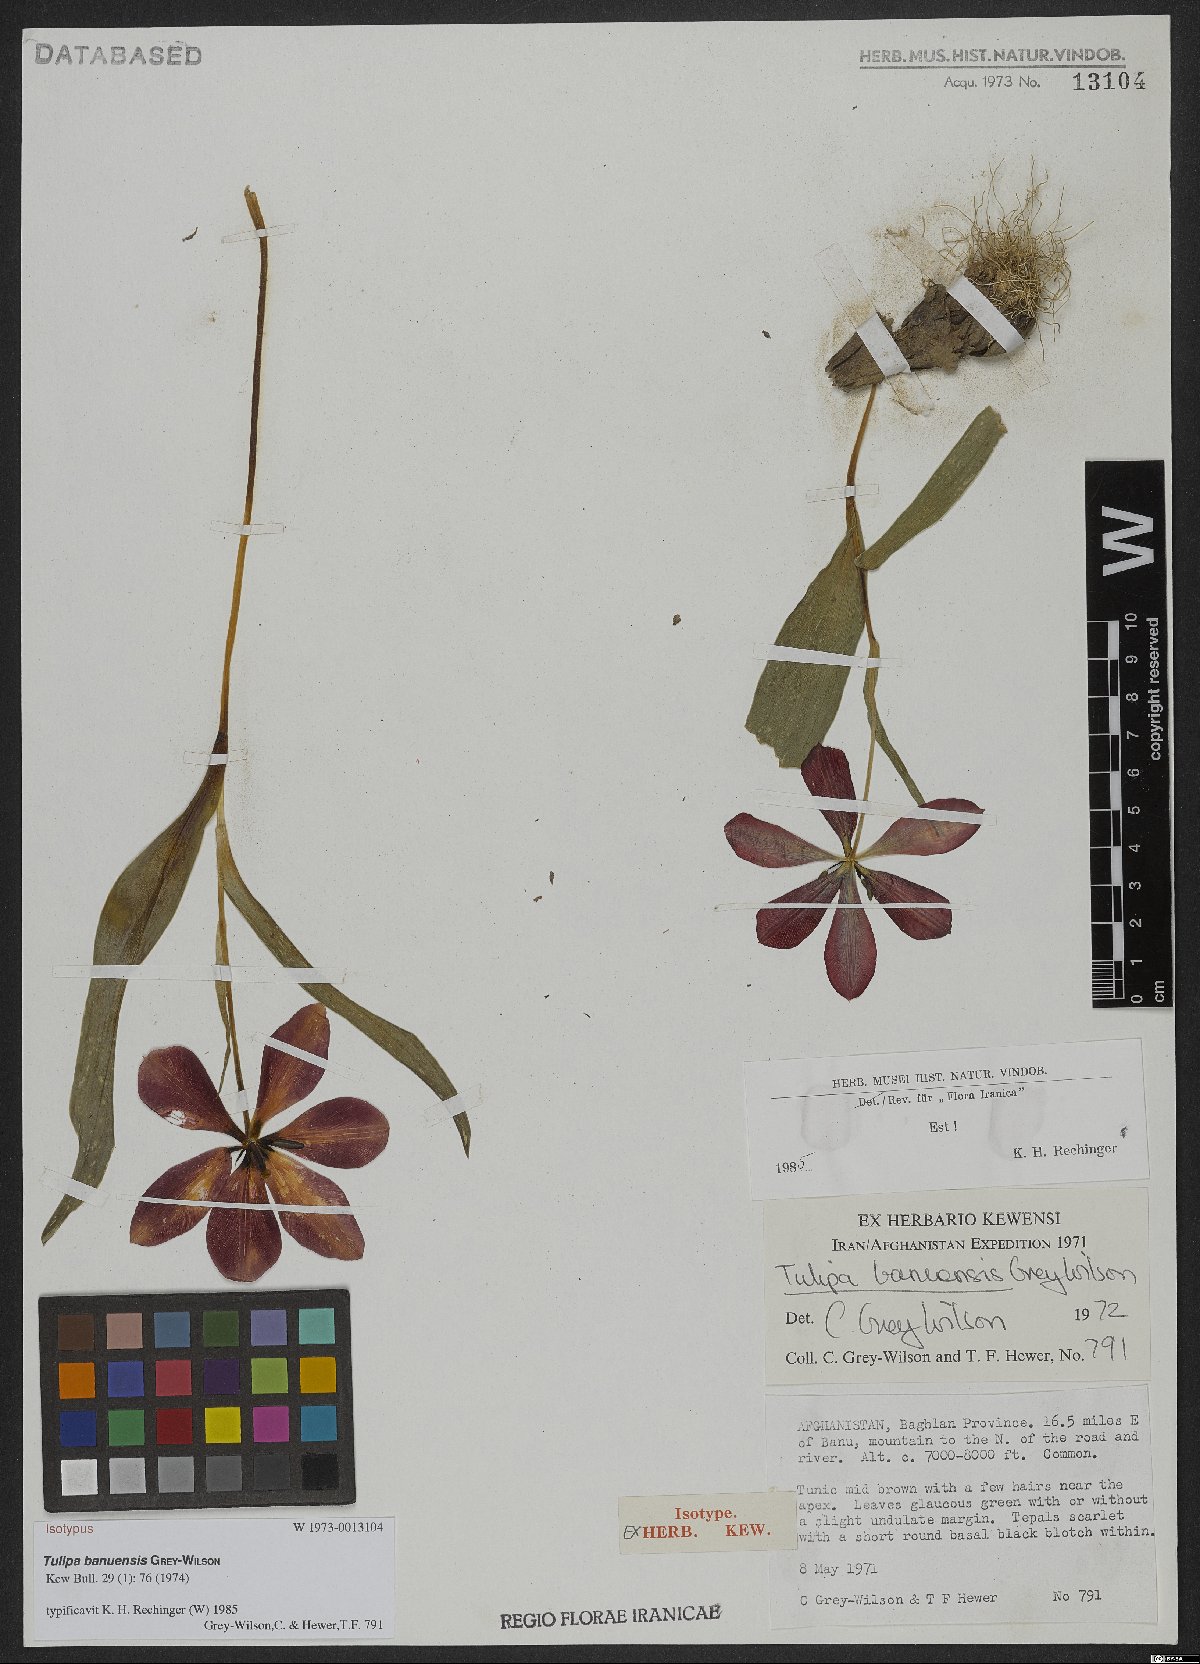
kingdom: Plantae
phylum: Tracheophyta
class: Liliopsida
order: Liliales
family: Liliaceae
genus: Tulipa
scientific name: Tulipa banuensis
